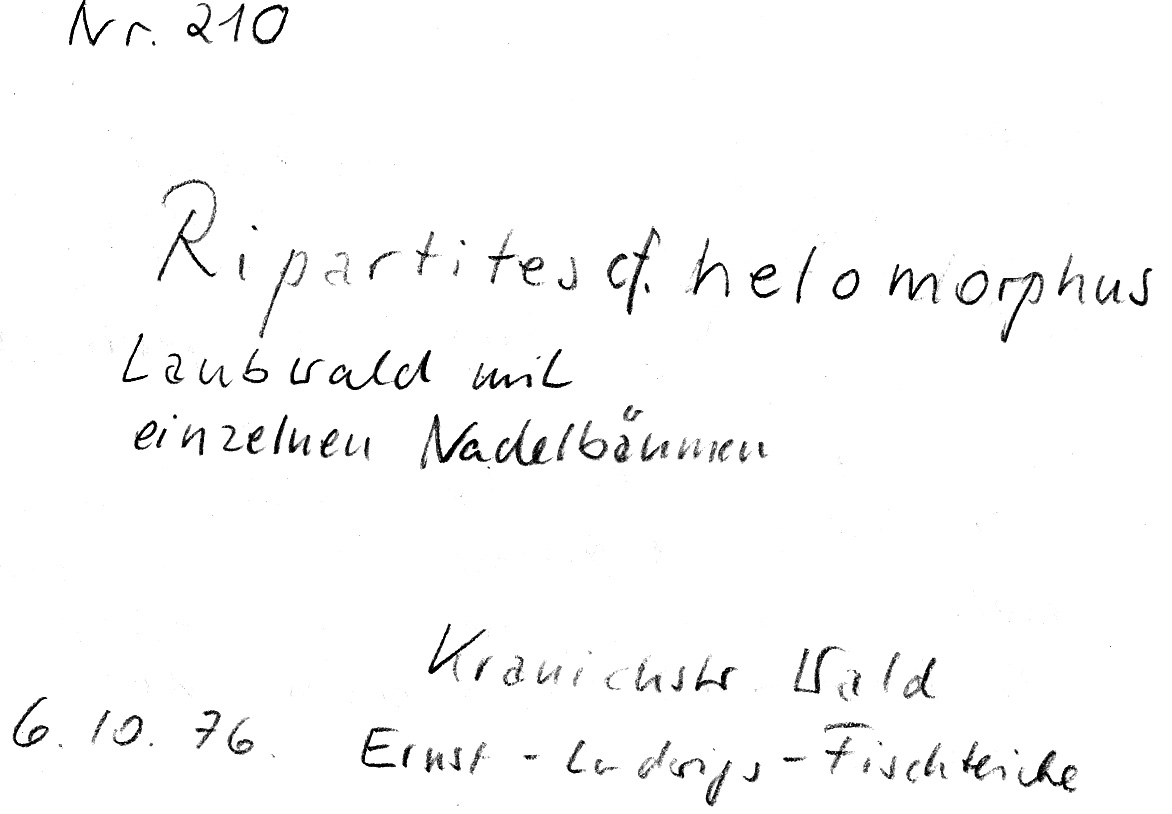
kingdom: Fungi
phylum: Basidiomycota
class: Agaricomycetes
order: Agaricales
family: Tricholomataceae
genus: Ripartites
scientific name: Ripartites tricholoma
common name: Bearded seamine
